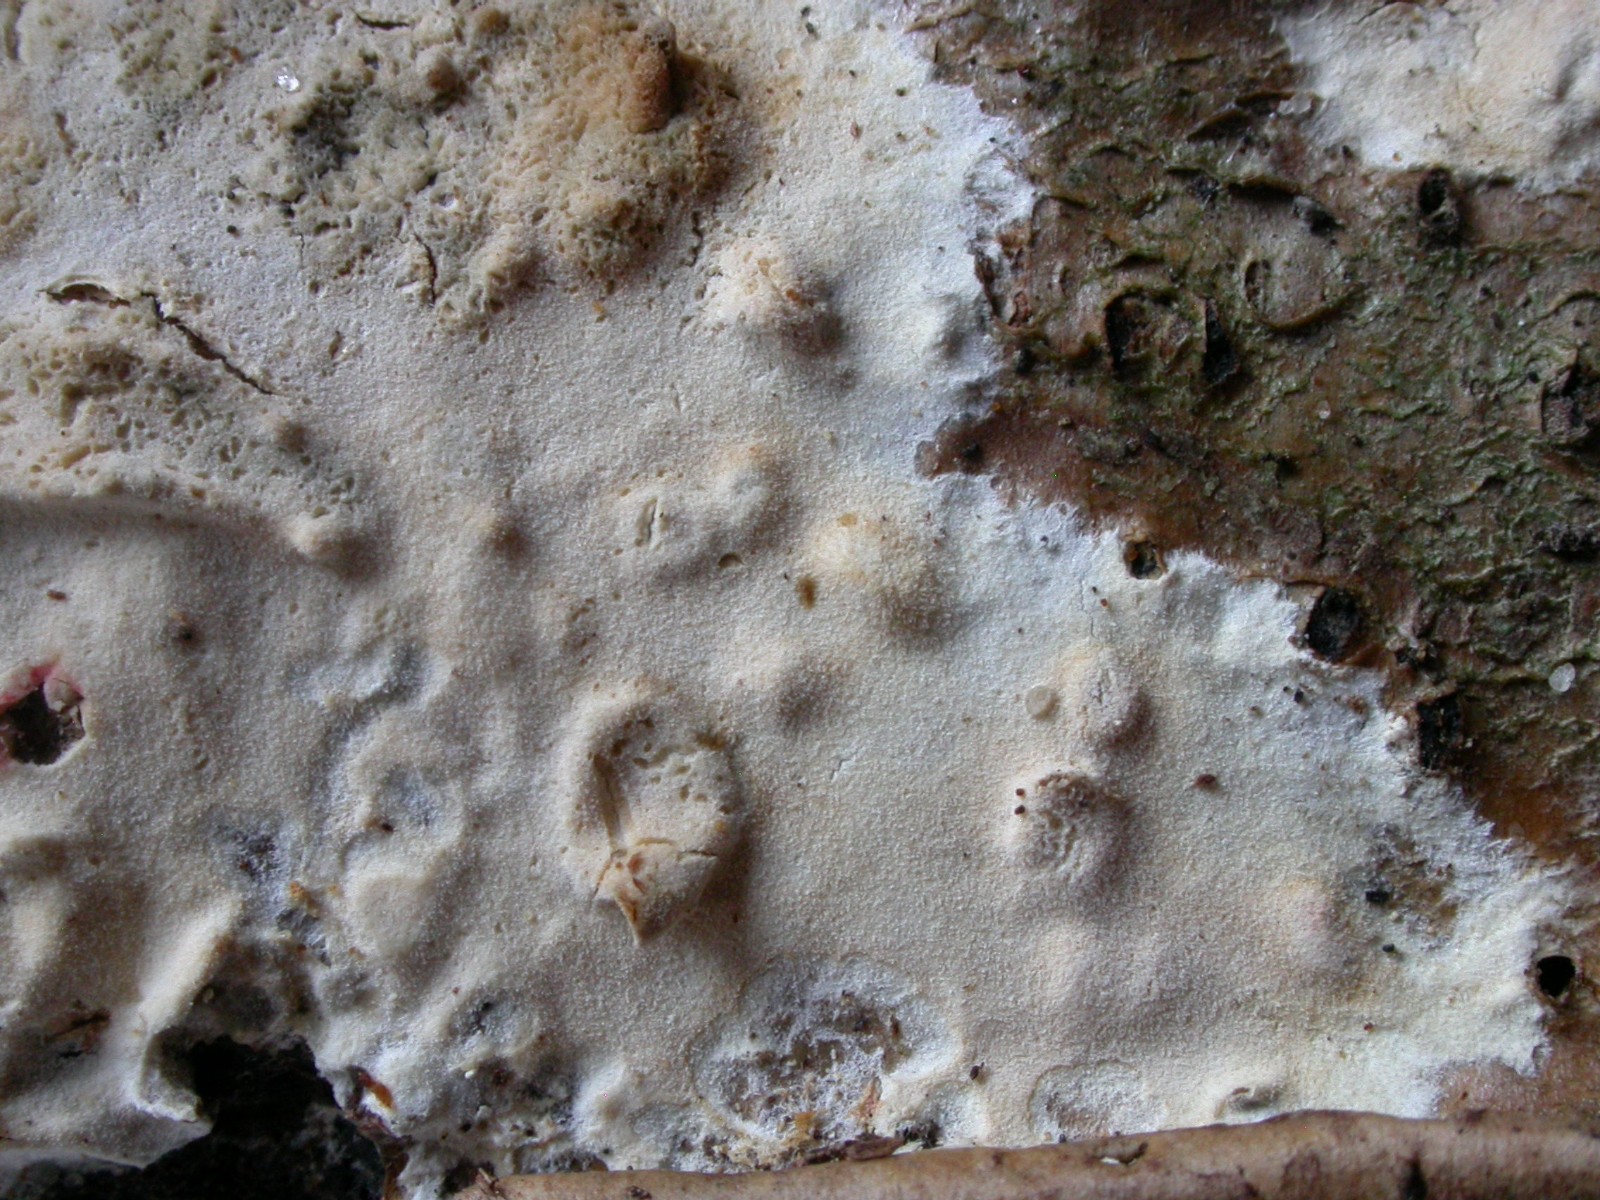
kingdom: Fungi
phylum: Basidiomycota
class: Agaricomycetes
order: Polyporales
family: Phanerochaetaceae
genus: Phanerochaete
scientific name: Phanerochaete velutina
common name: dunet randtråd
